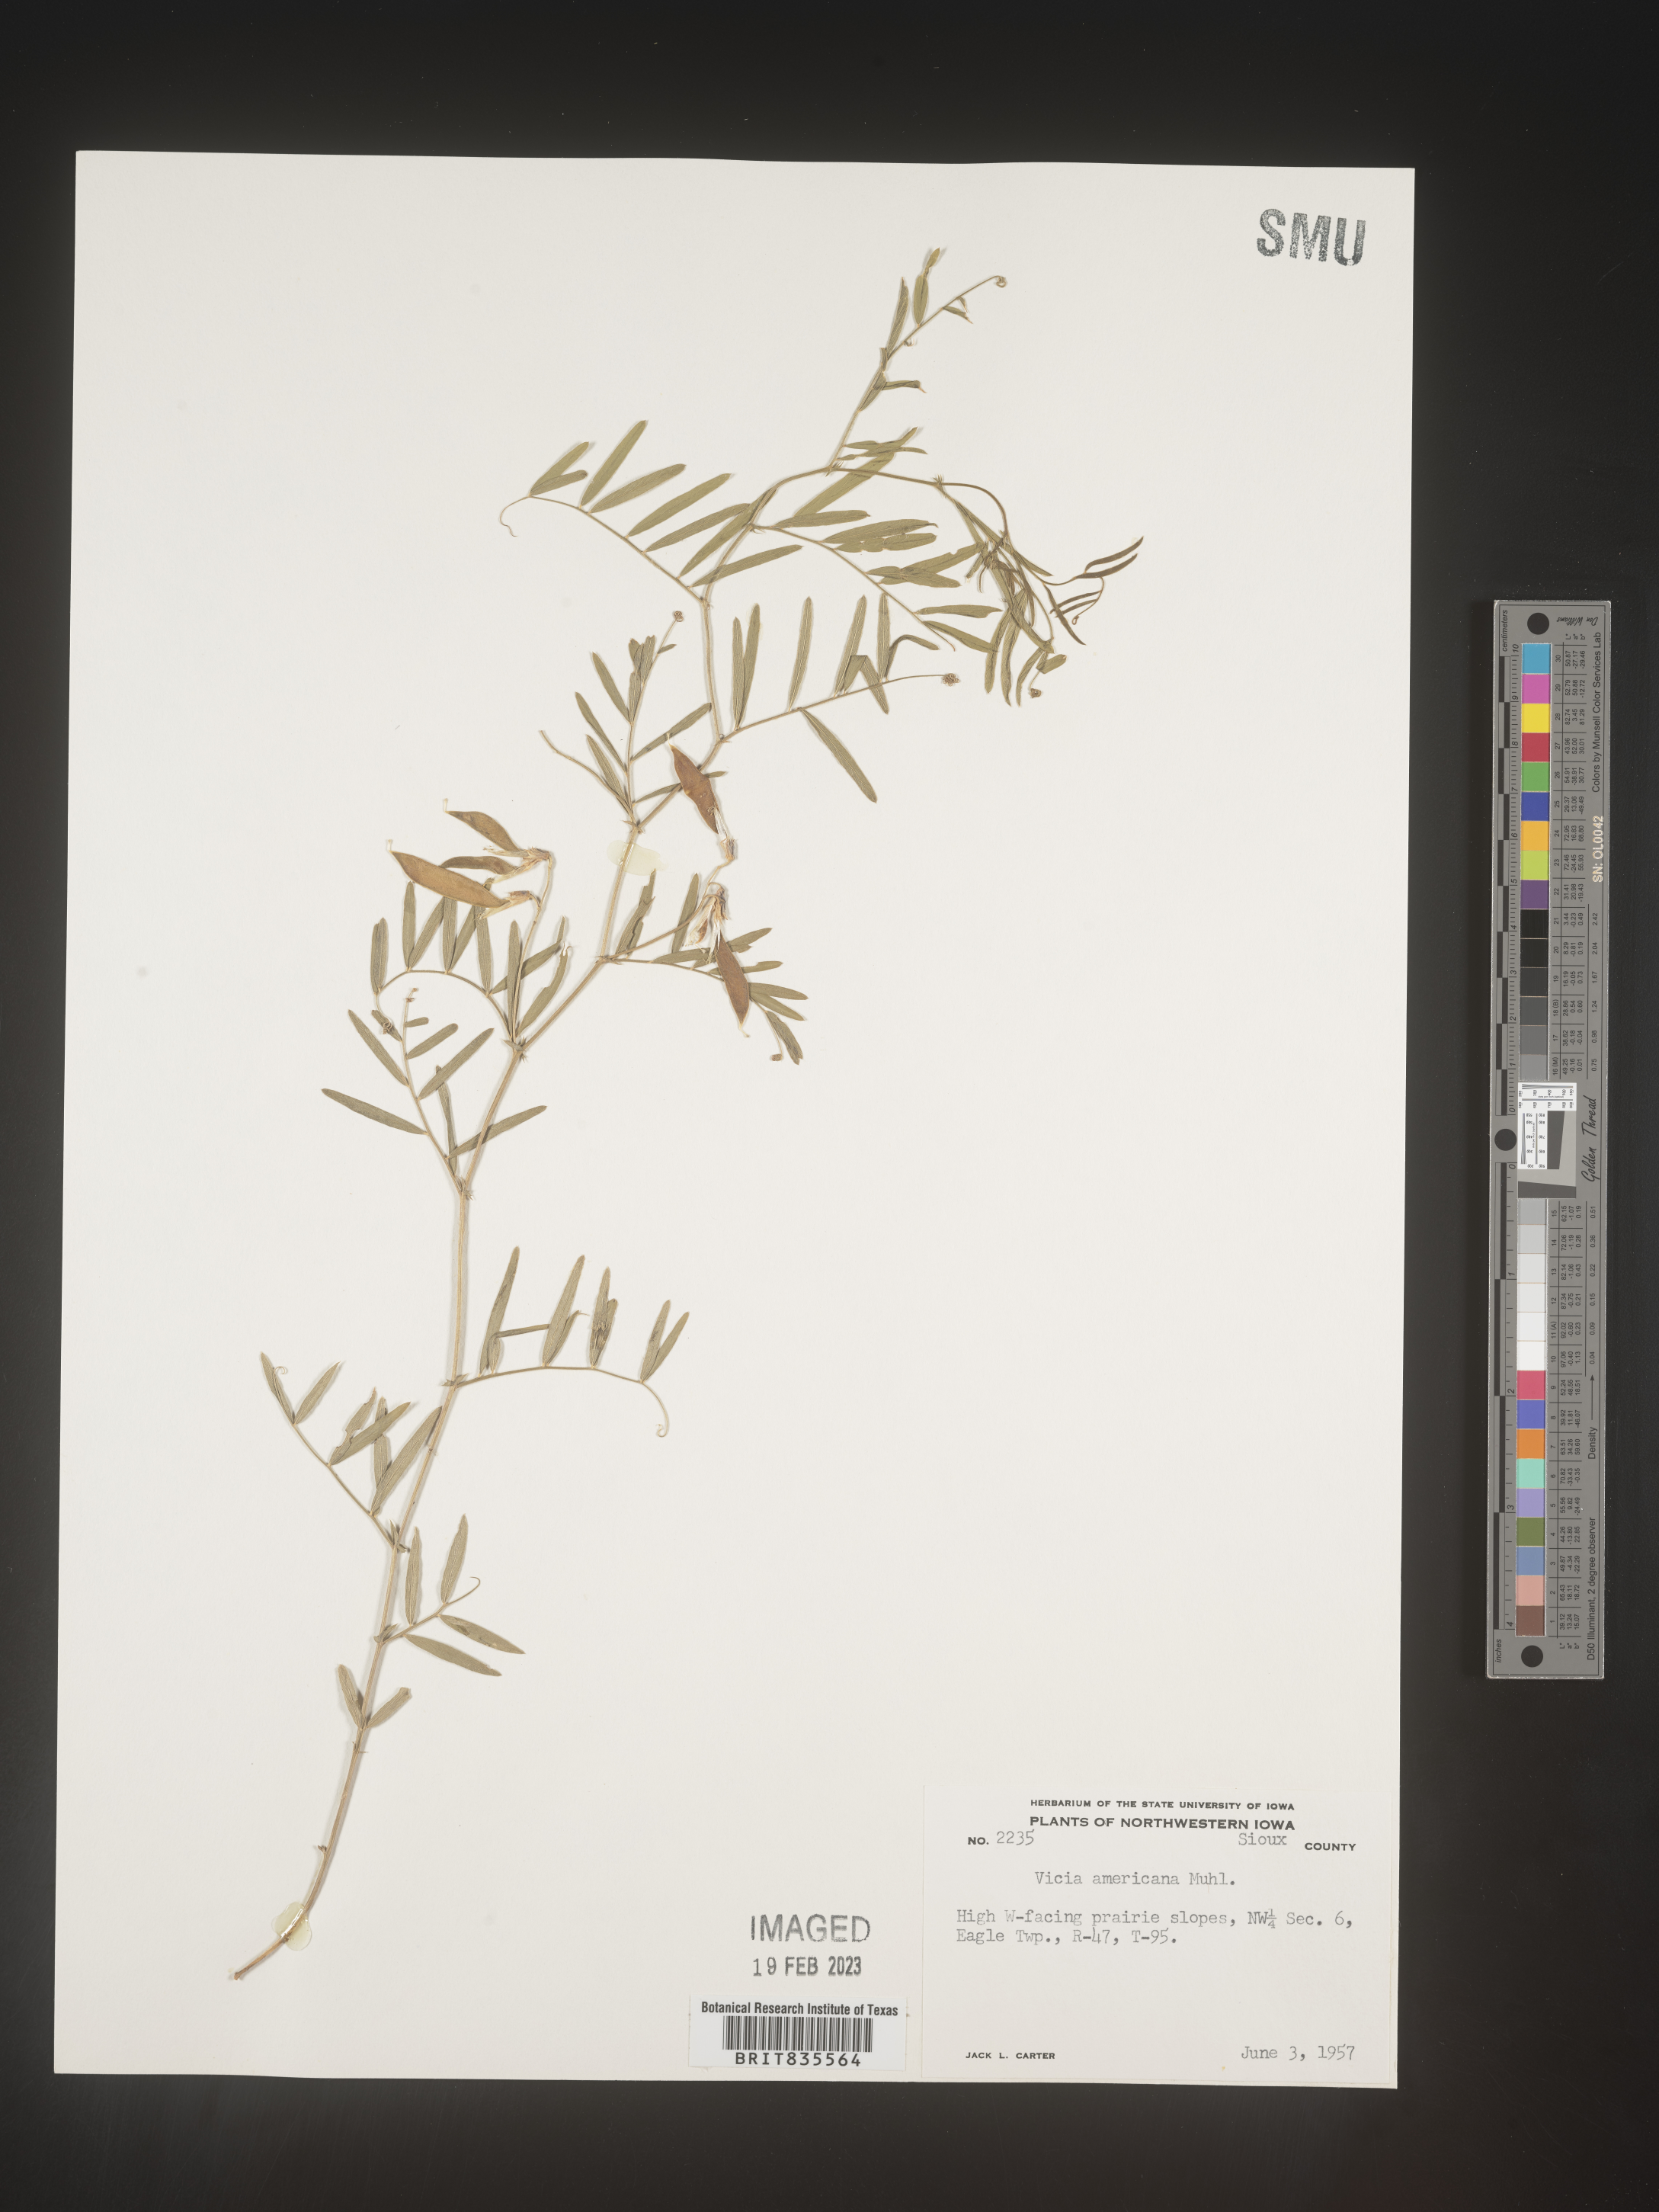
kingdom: Plantae
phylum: Tracheophyta
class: Magnoliopsida
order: Fabales
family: Fabaceae
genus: Vicia
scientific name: Vicia americana
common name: American vetch
